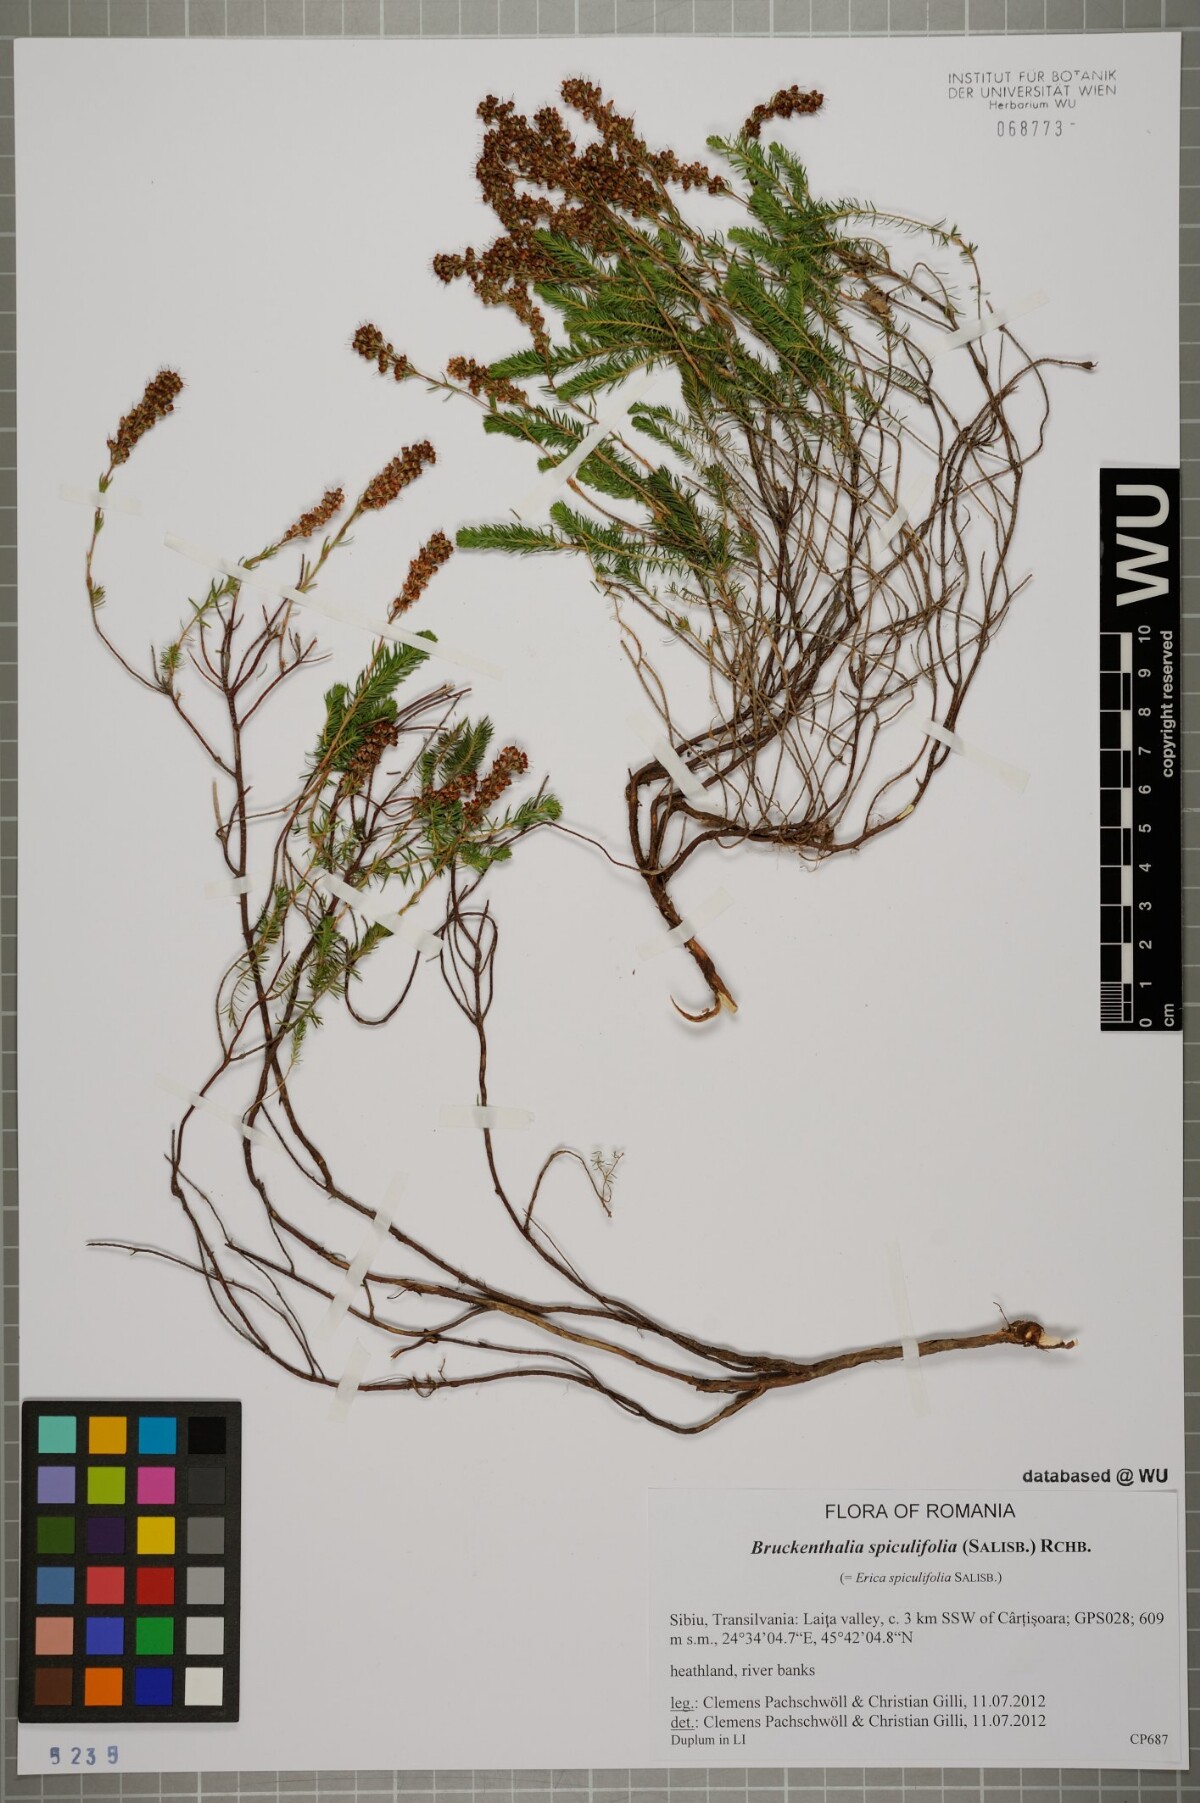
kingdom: Plantae
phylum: Tracheophyta
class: Magnoliopsida
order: Ericales
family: Ericaceae
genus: Erica
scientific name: Erica spiculifolia
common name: Spike heath
